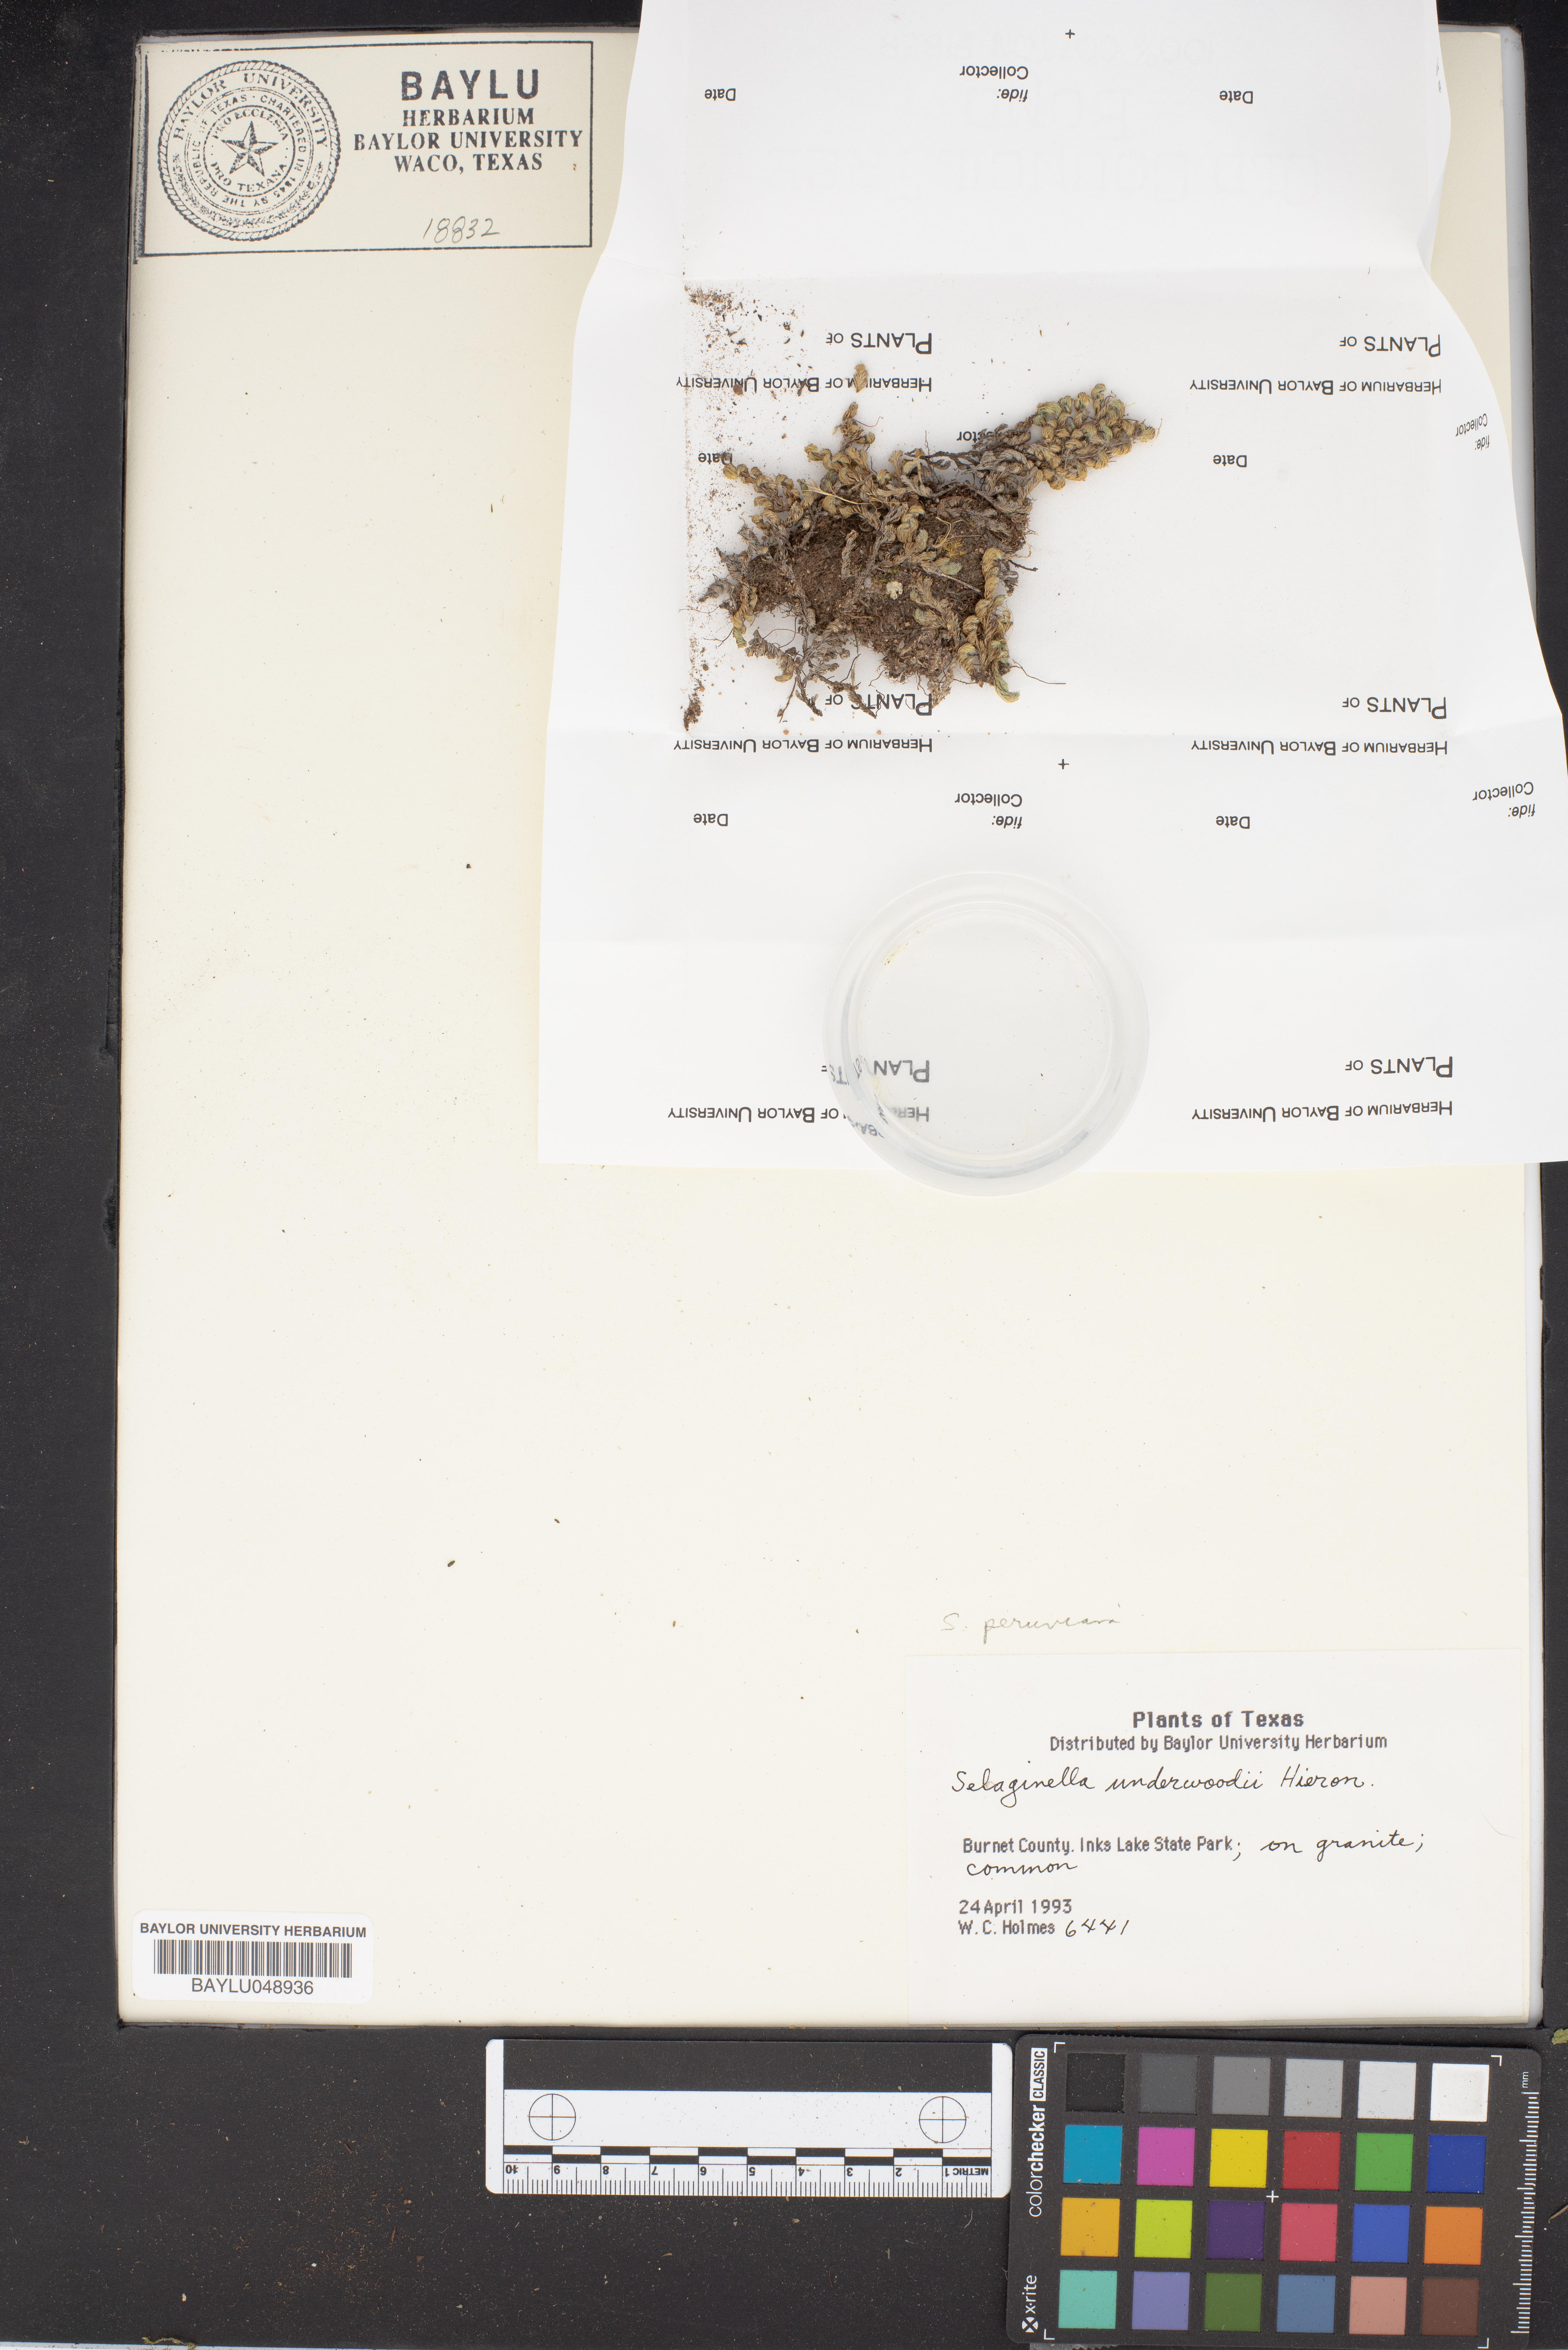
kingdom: Plantae
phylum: Tracheophyta
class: Lycopodiopsida
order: Selaginellales
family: Selaginellaceae
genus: Selaginella
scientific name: Selaginella underwoodii
